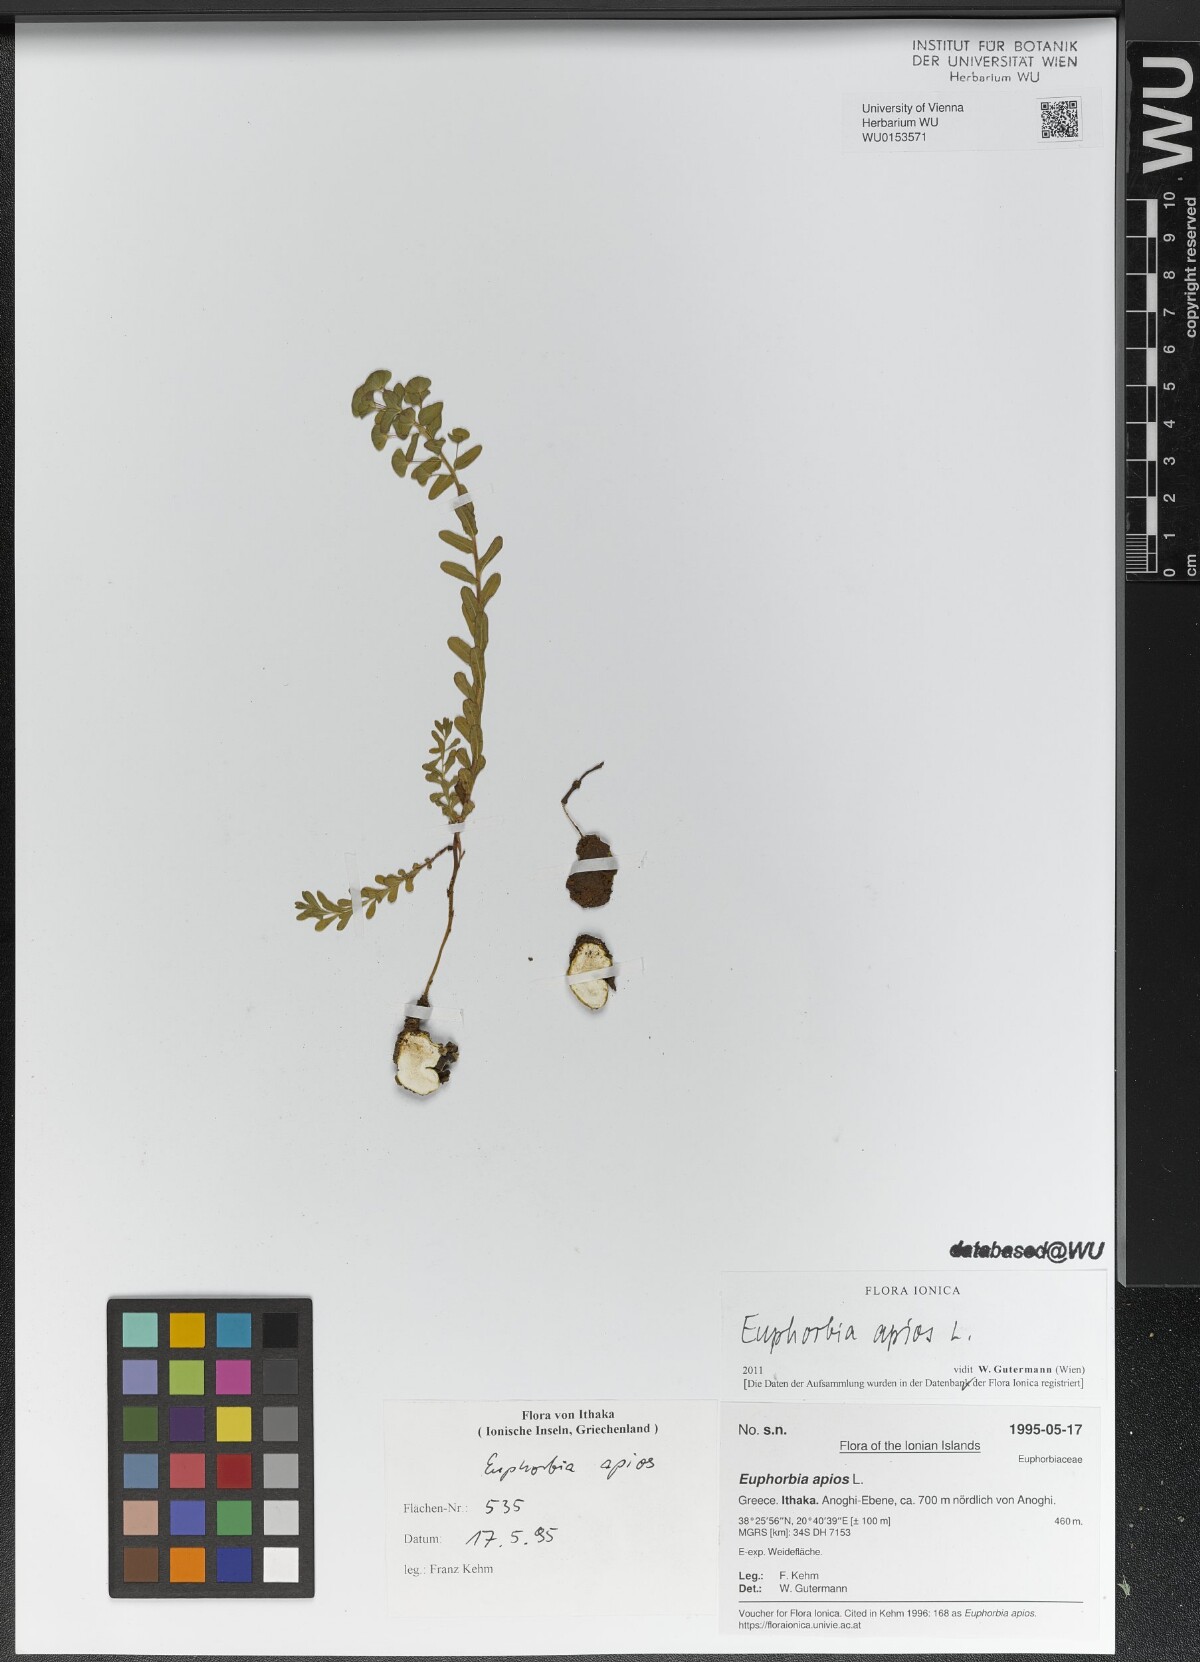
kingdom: Plantae
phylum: Tracheophyta
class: Magnoliopsida
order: Malpighiales
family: Euphorbiaceae
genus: Euphorbia
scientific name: Euphorbia apios
